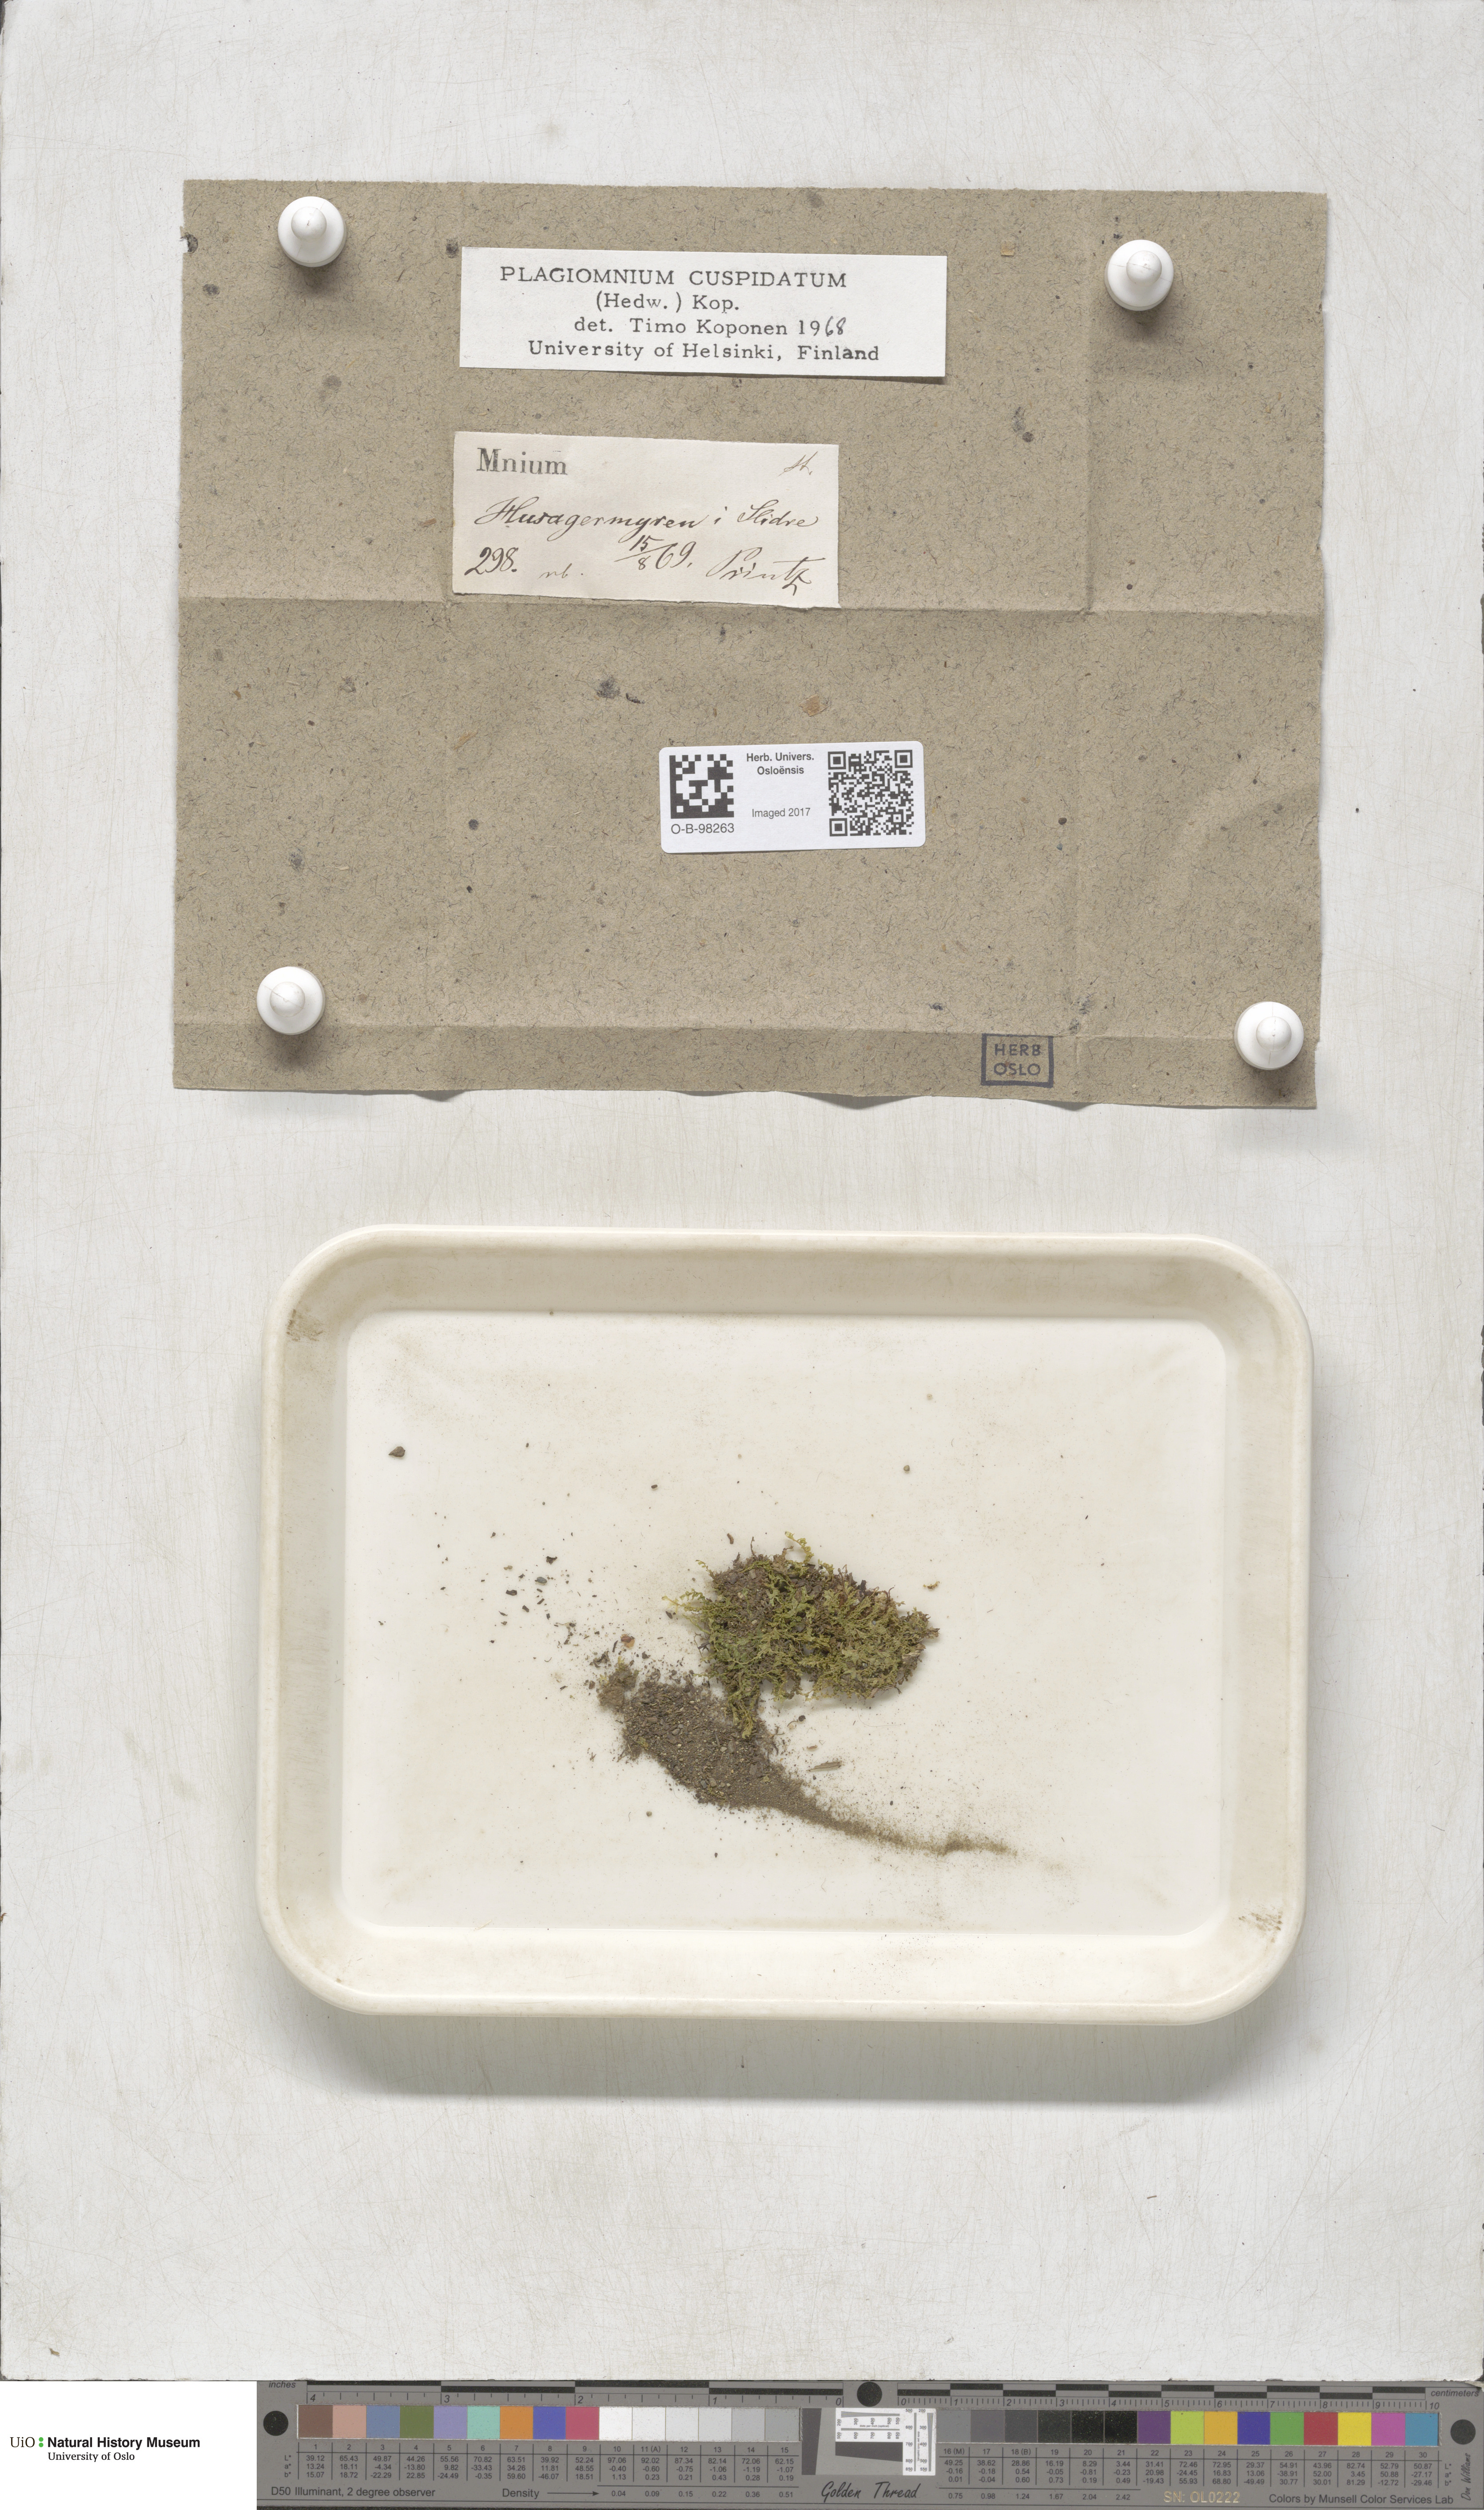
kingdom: Plantae
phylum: Bryophyta
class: Bryopsida
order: Bryales
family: Mniaceae
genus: Plagiomnium
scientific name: Plagiomnium cuspidatum
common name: Woodsy leafy moss
